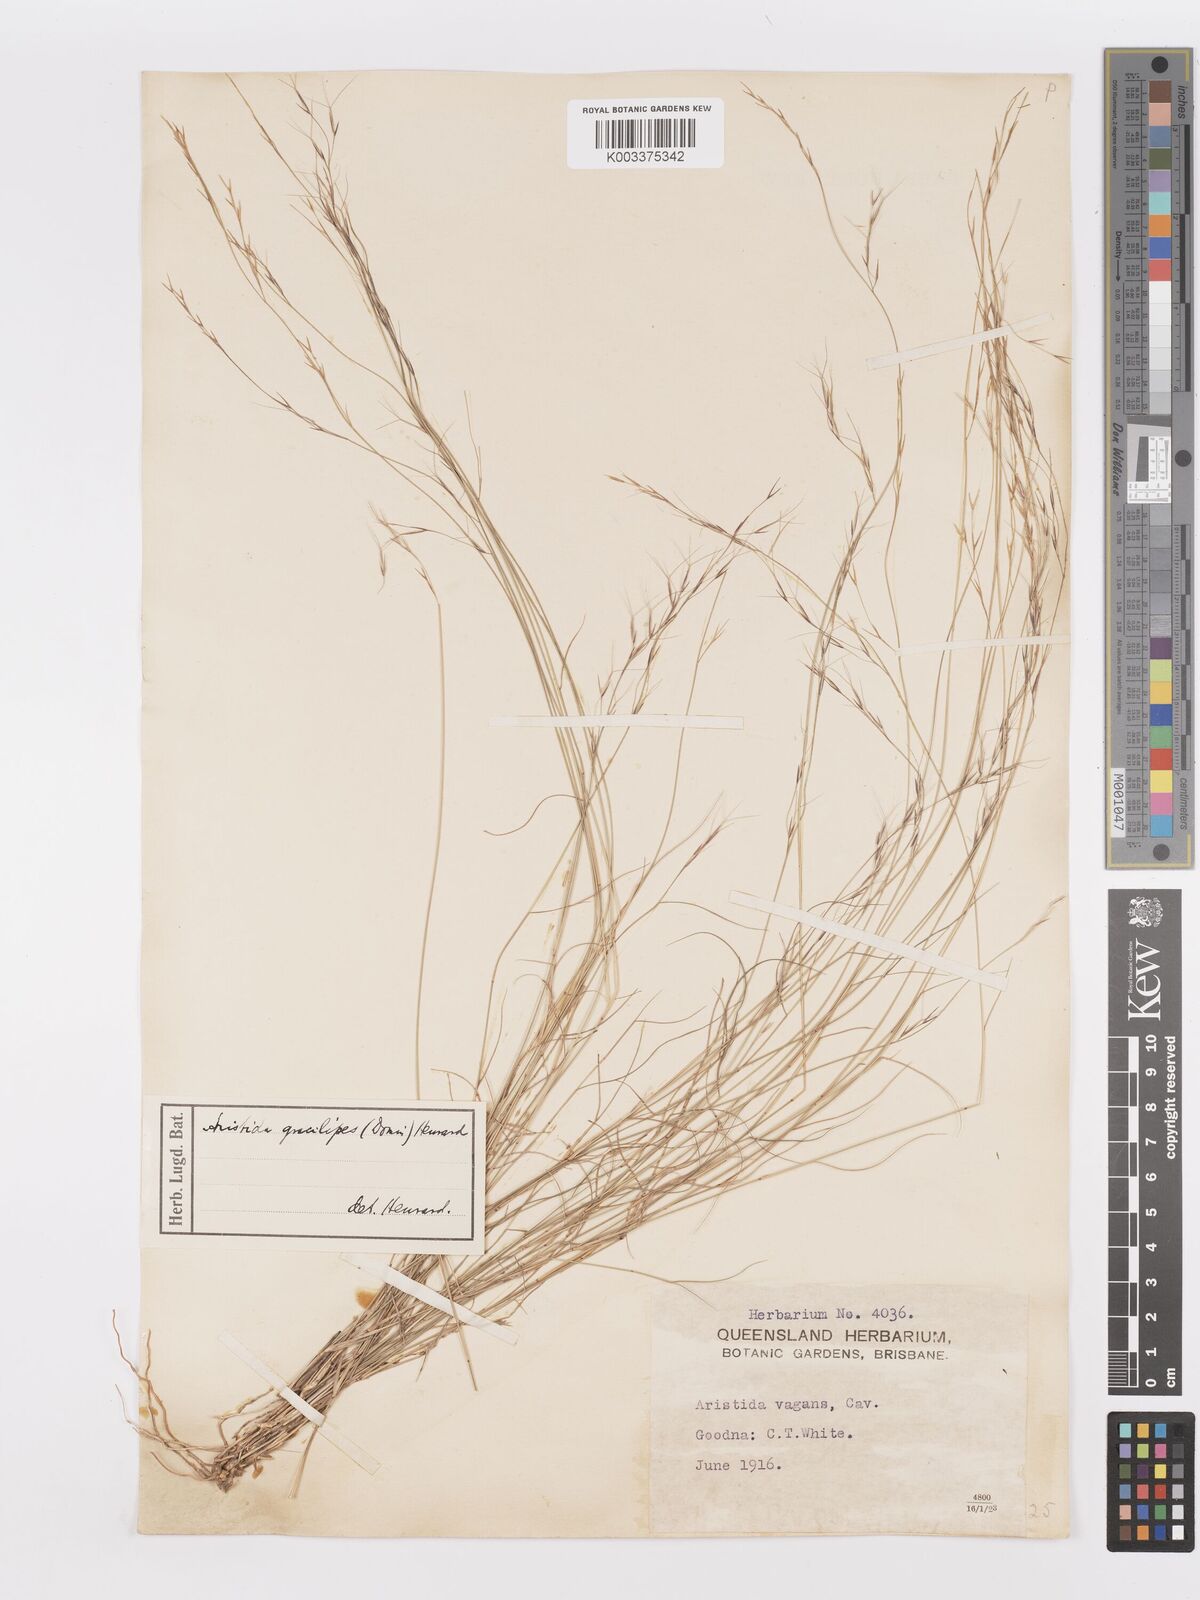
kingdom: Plantae
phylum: Tracheophyta
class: Liliopsida
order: Poales
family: Poaceae
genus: Aristida
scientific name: Aristida gracilipes
